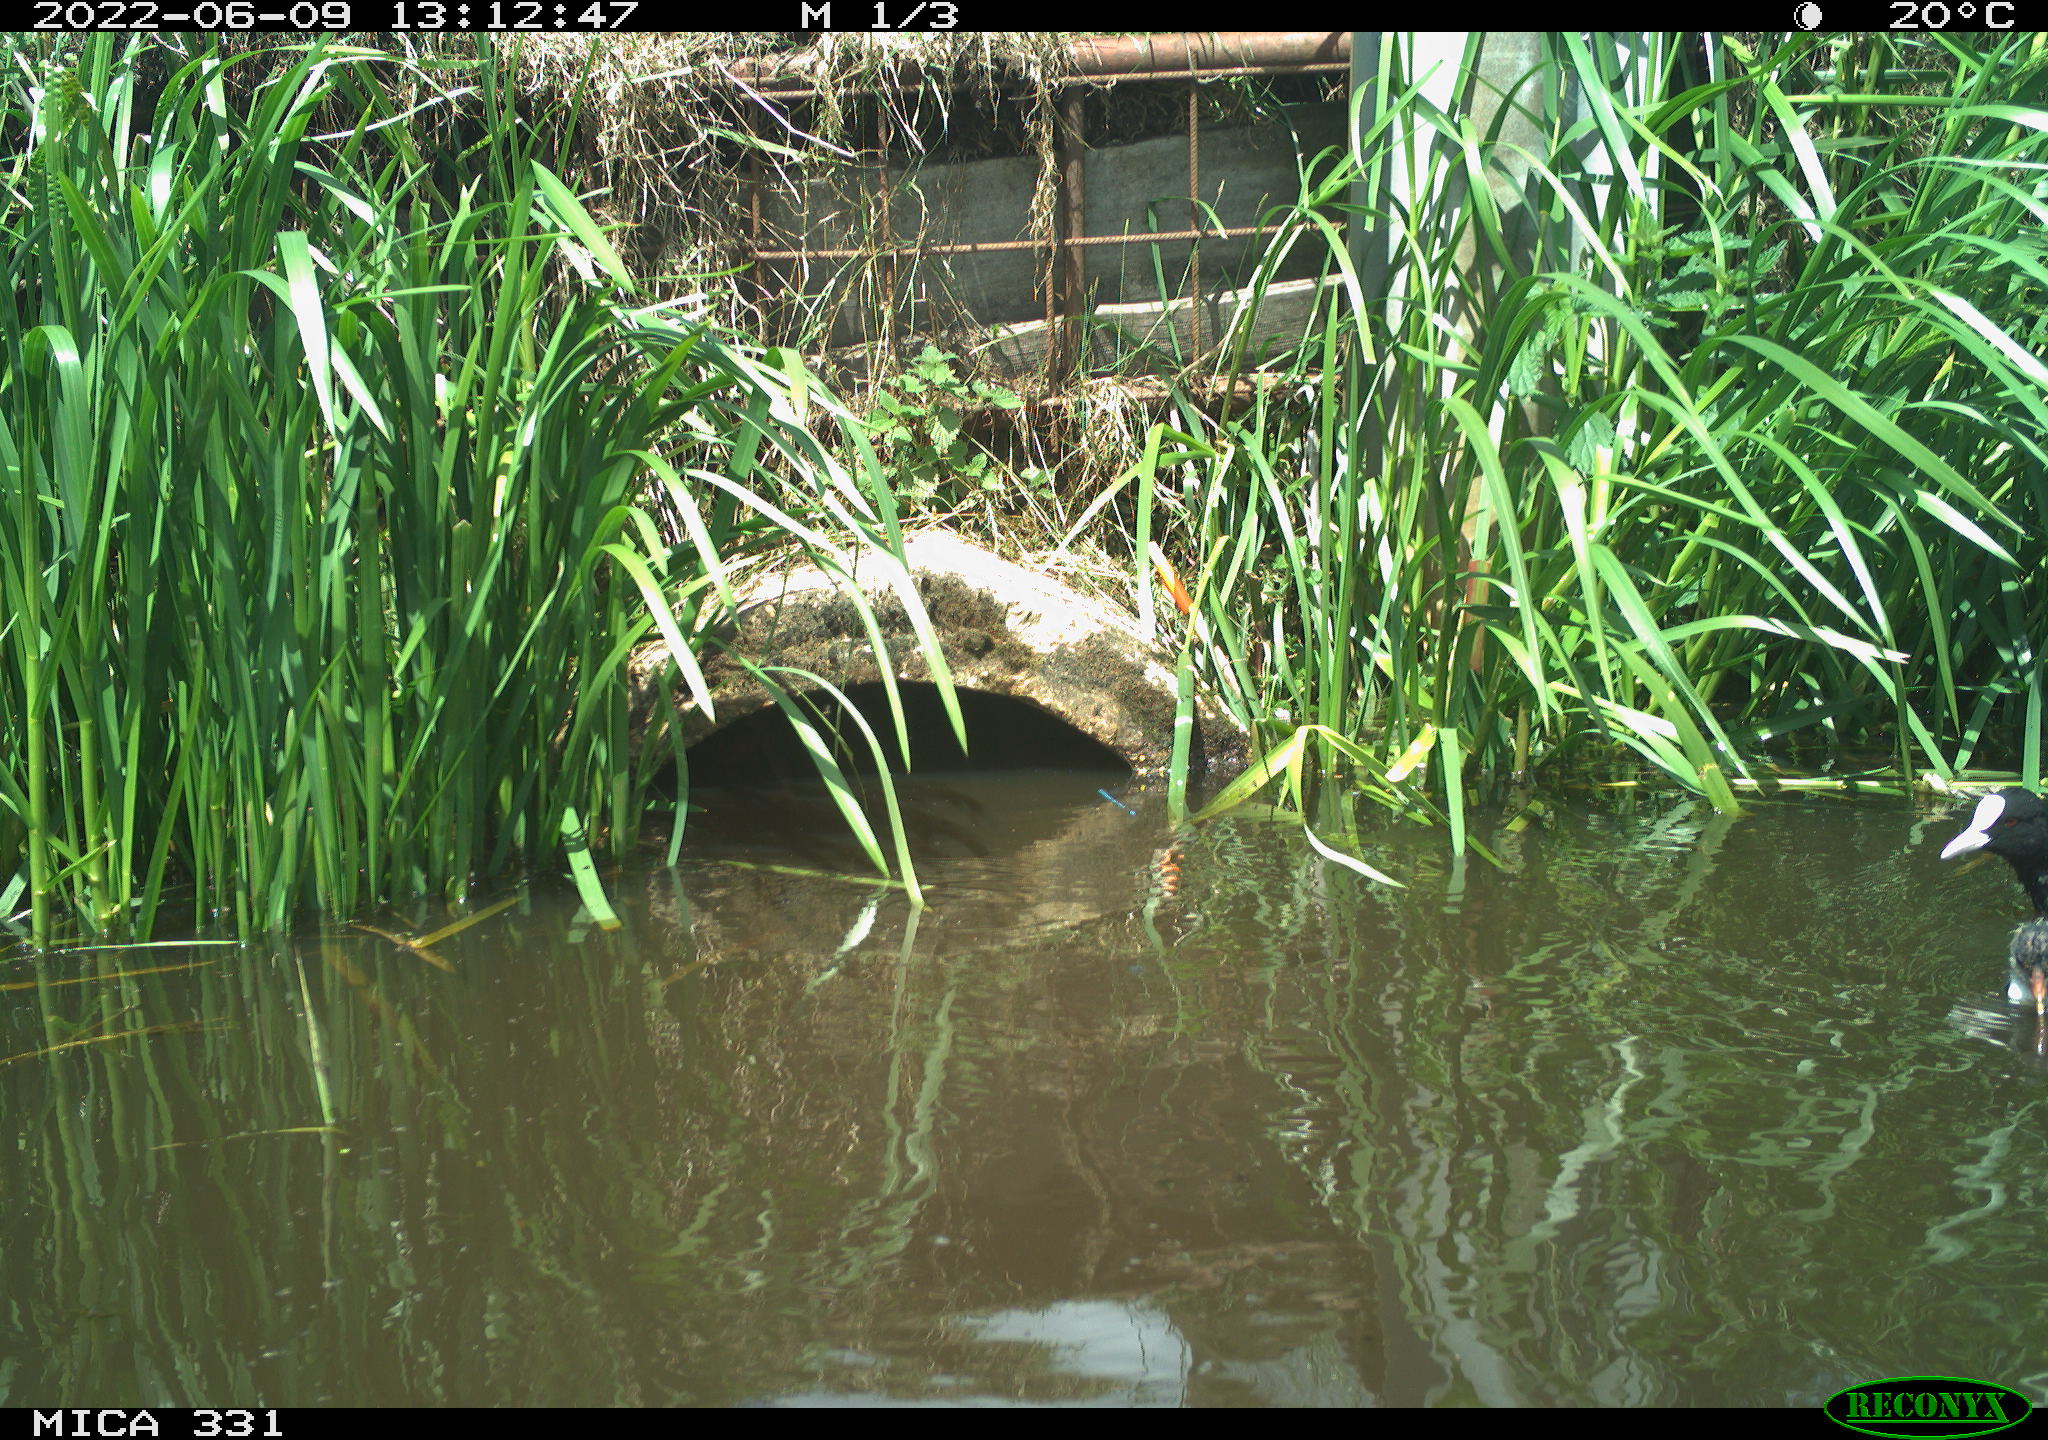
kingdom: Animalia
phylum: Chordata
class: Aves
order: Gruiformes
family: Rallidae
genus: Fulica
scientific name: Fulica atra
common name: Eurasian coot
